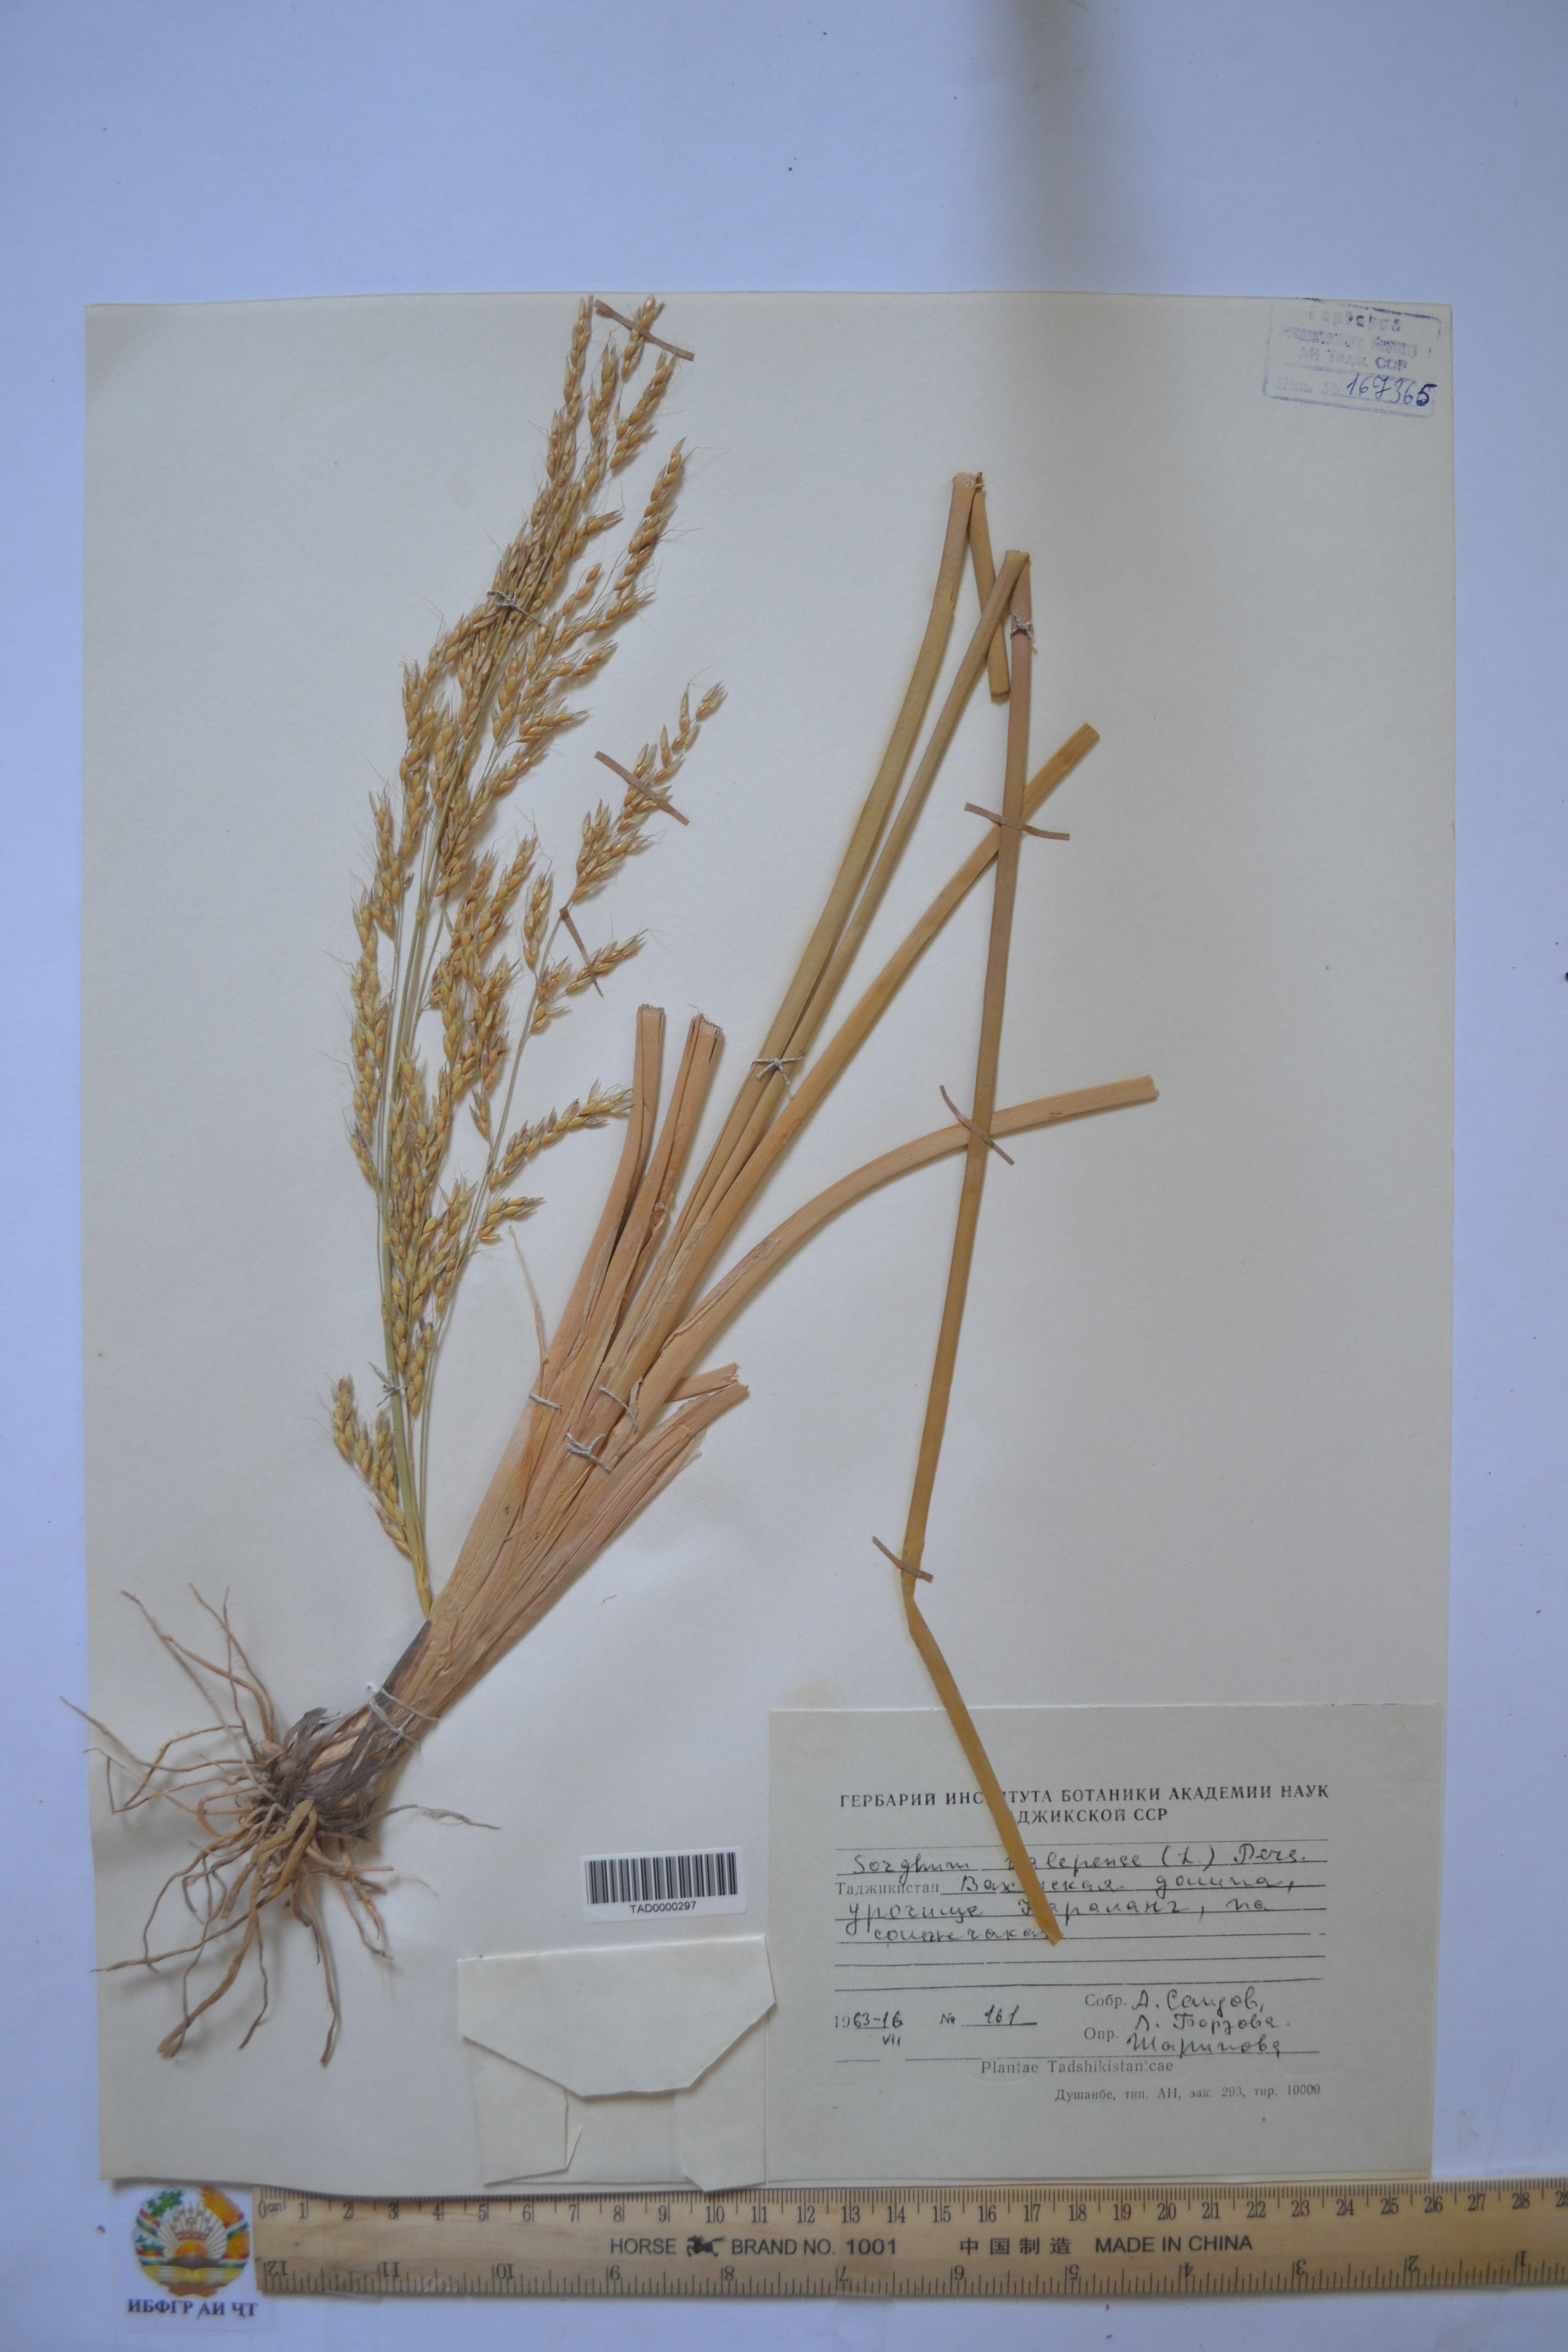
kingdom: Plantae
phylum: Tracheophyta
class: Liliopsida
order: Poales
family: Poaceae
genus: Sorghum
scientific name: Sorghum halepense
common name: Johnson-grass
